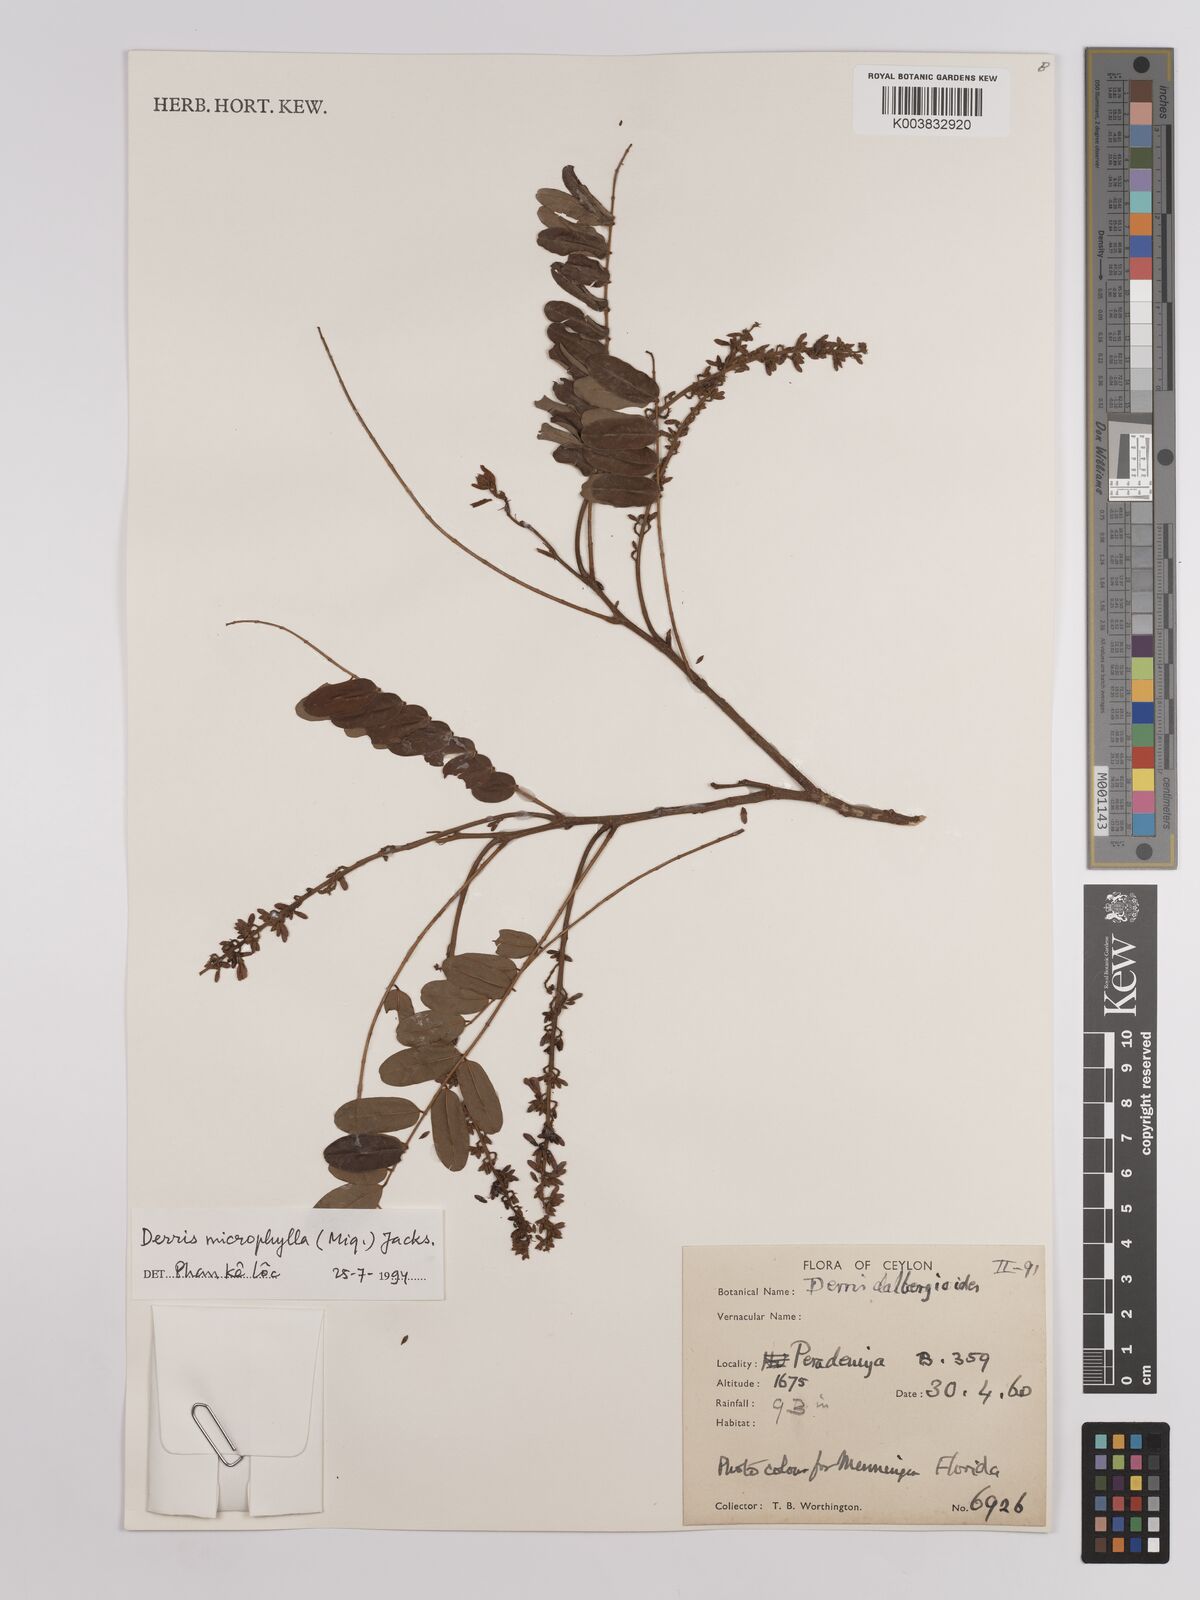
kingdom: Plantae
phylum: Tracheophyta
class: Magnoliopsida
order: Fabales
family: Fabaceae
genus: Brachypterum
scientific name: Brachypterum microphyllum
